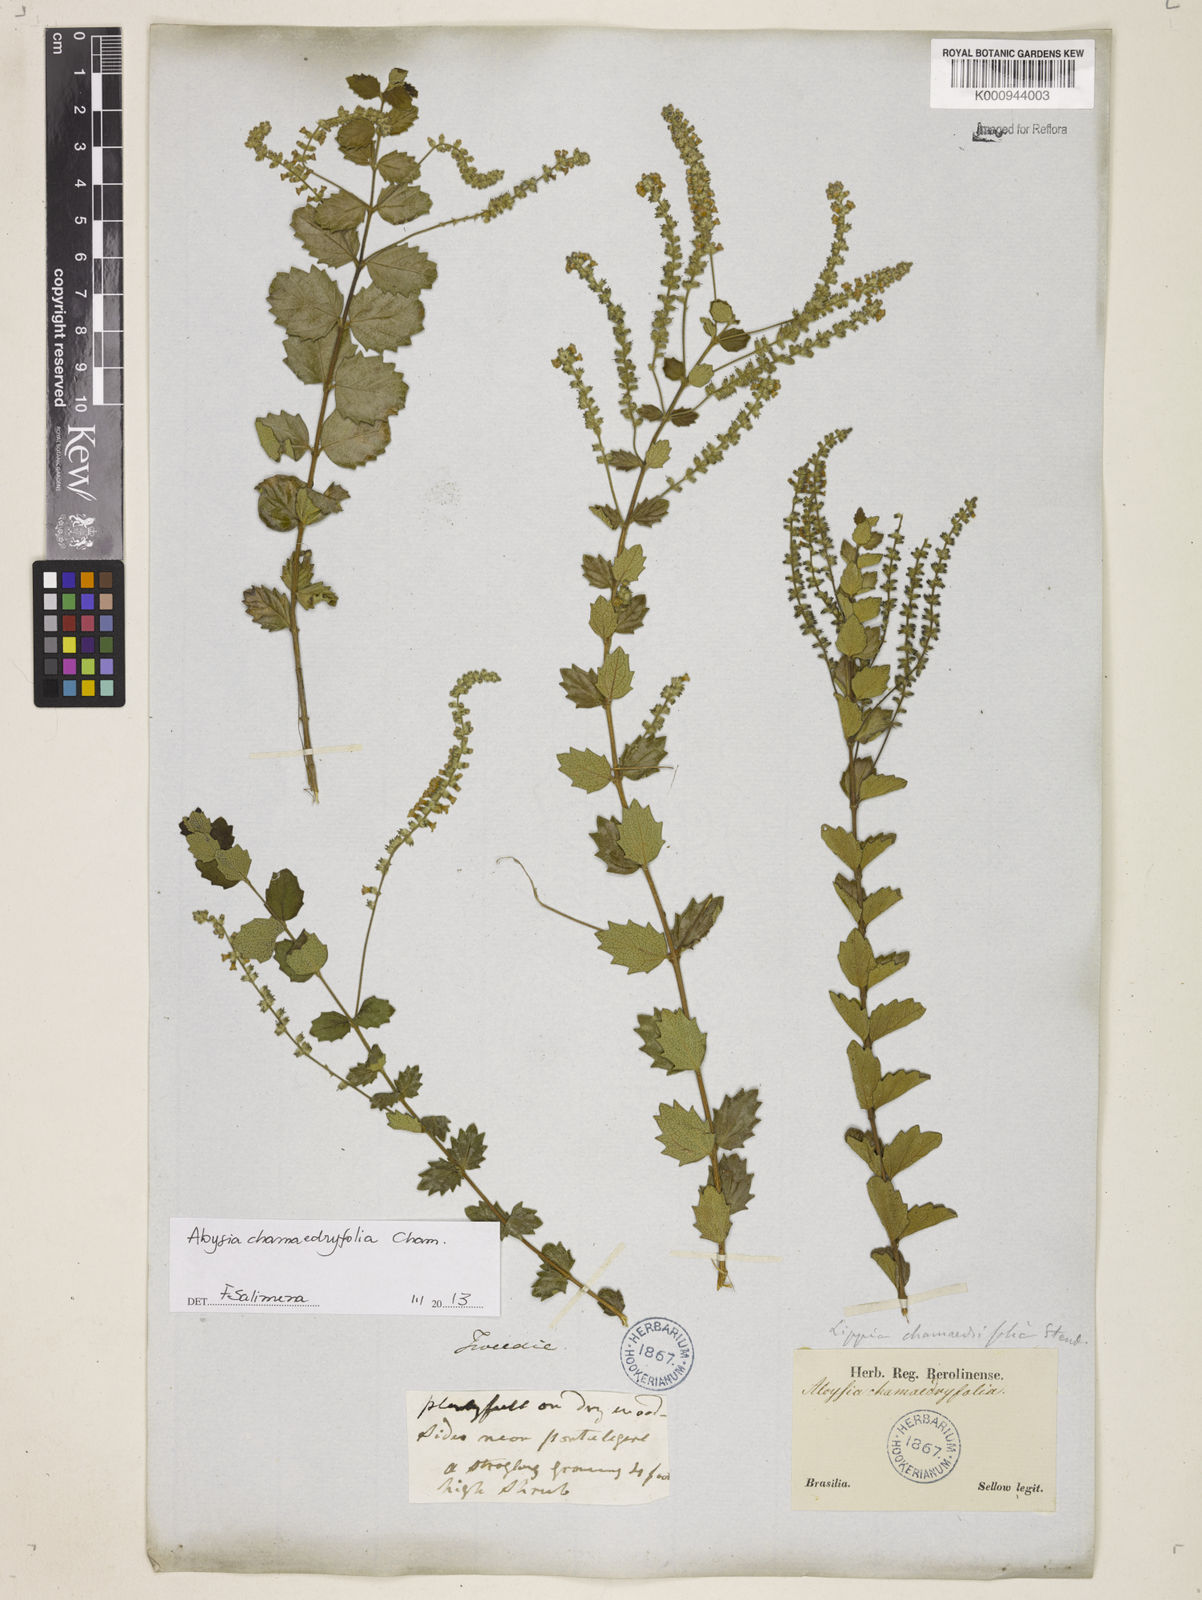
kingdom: Plantae
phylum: Tracheophyta
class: Magnoliopsida
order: Lamiales
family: Verbenaceae
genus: Aloysia
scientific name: Aloysia
